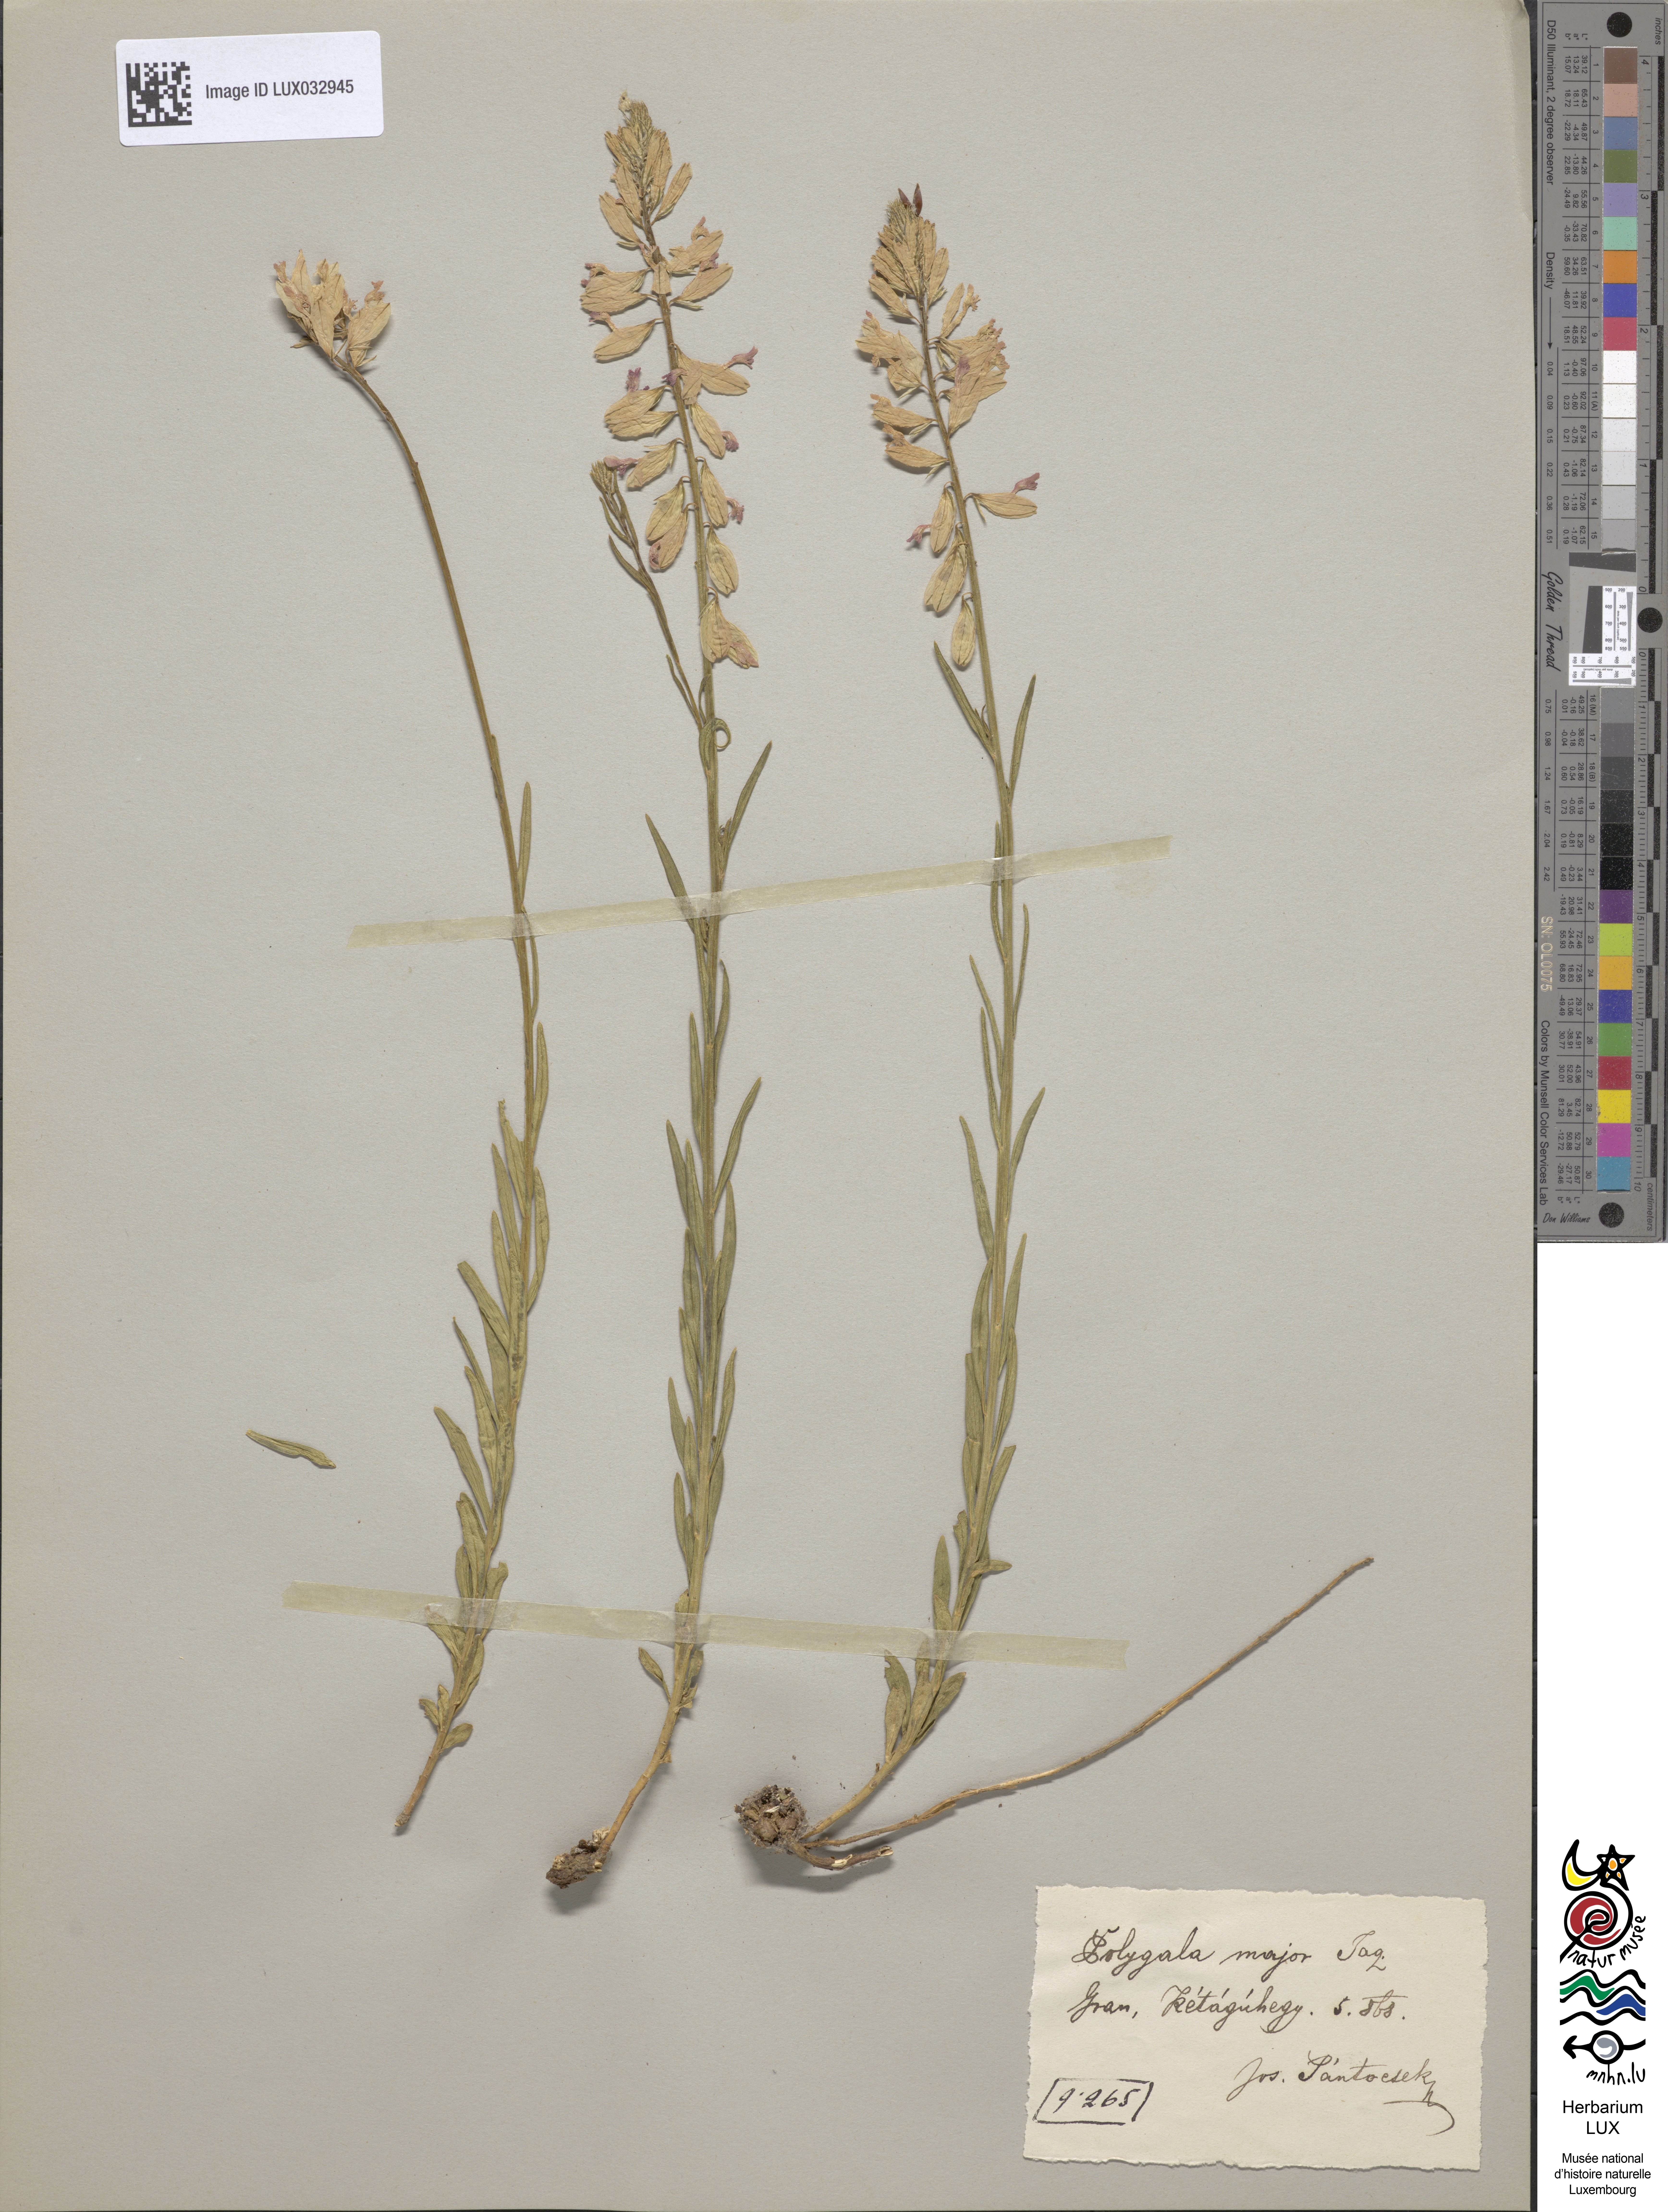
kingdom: Plantae
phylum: Tracheophyta
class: Magnoliopsida
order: Fabales
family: Polygalaceae
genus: Polygala
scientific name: Polygala major
